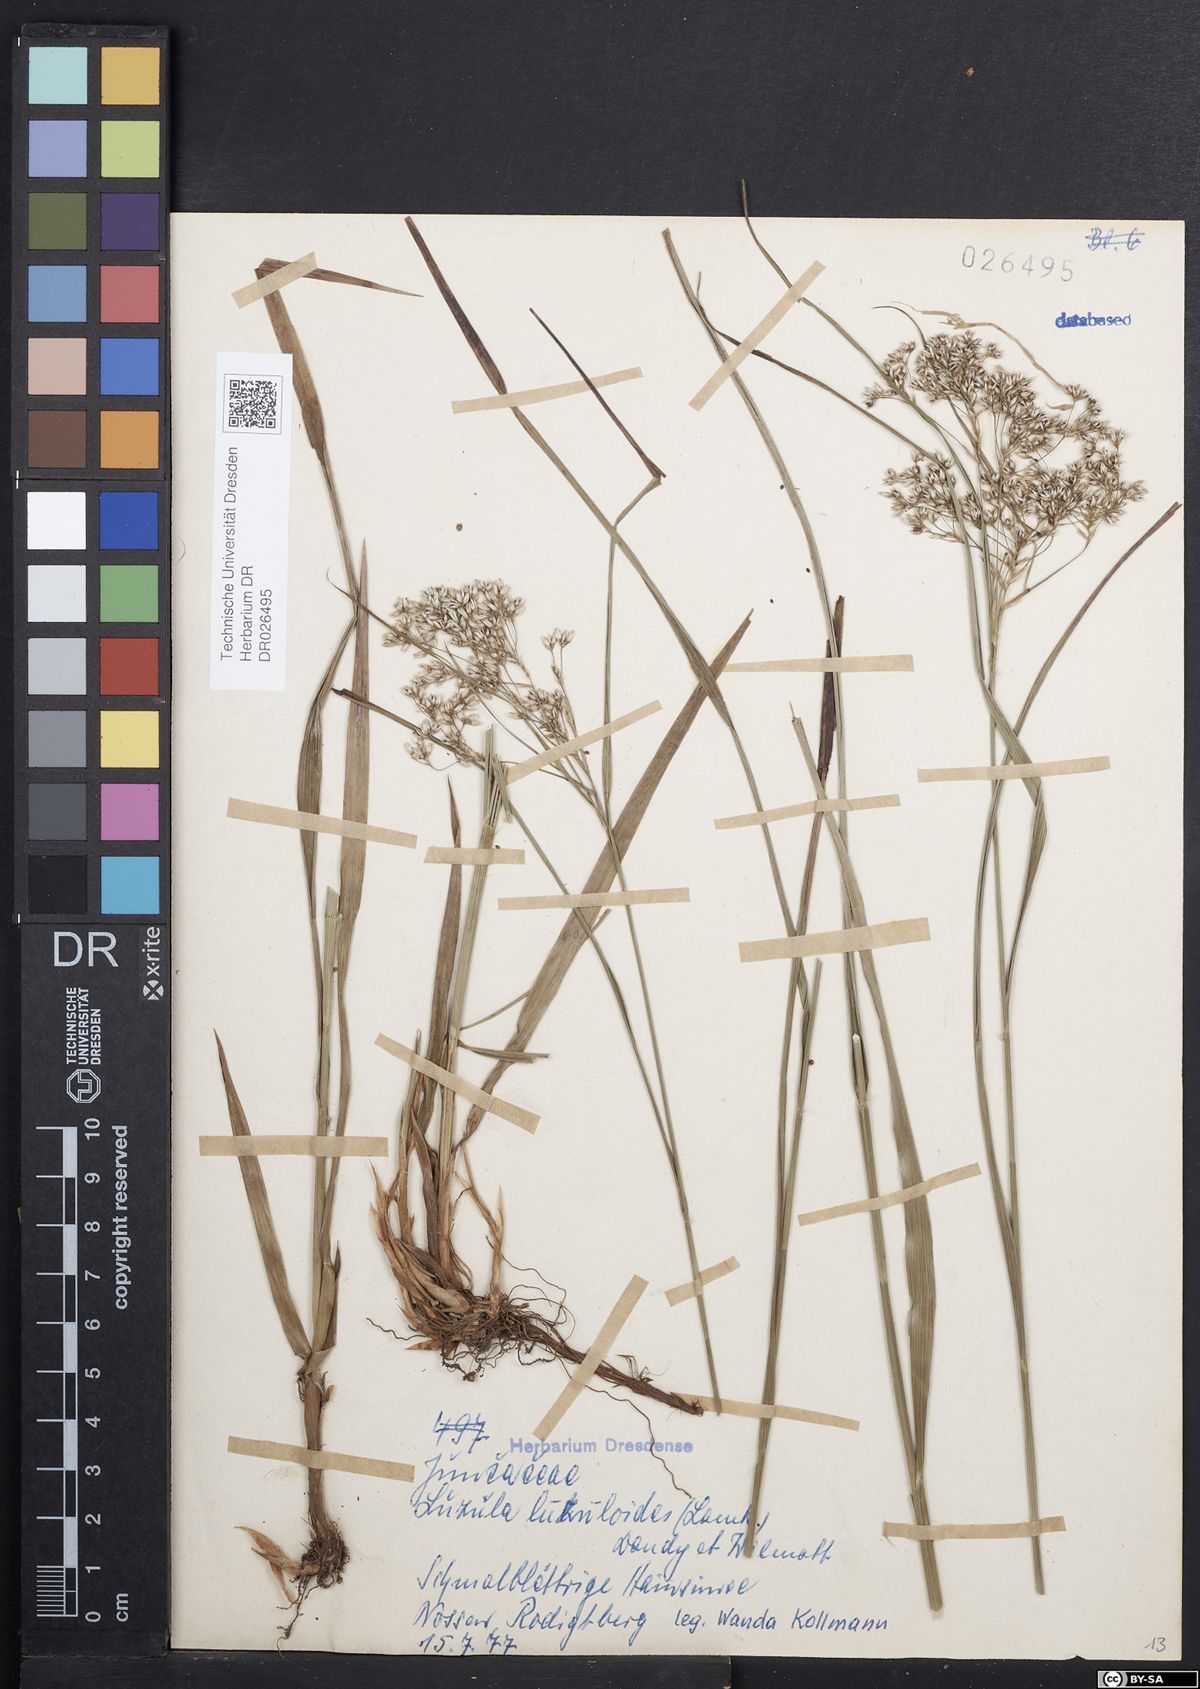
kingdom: Plantae
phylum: Tracheophyta
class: Liliopsida
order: Poales
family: Juncaceae
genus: Luzula
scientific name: Luzula luzuloides
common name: White wood-rush
